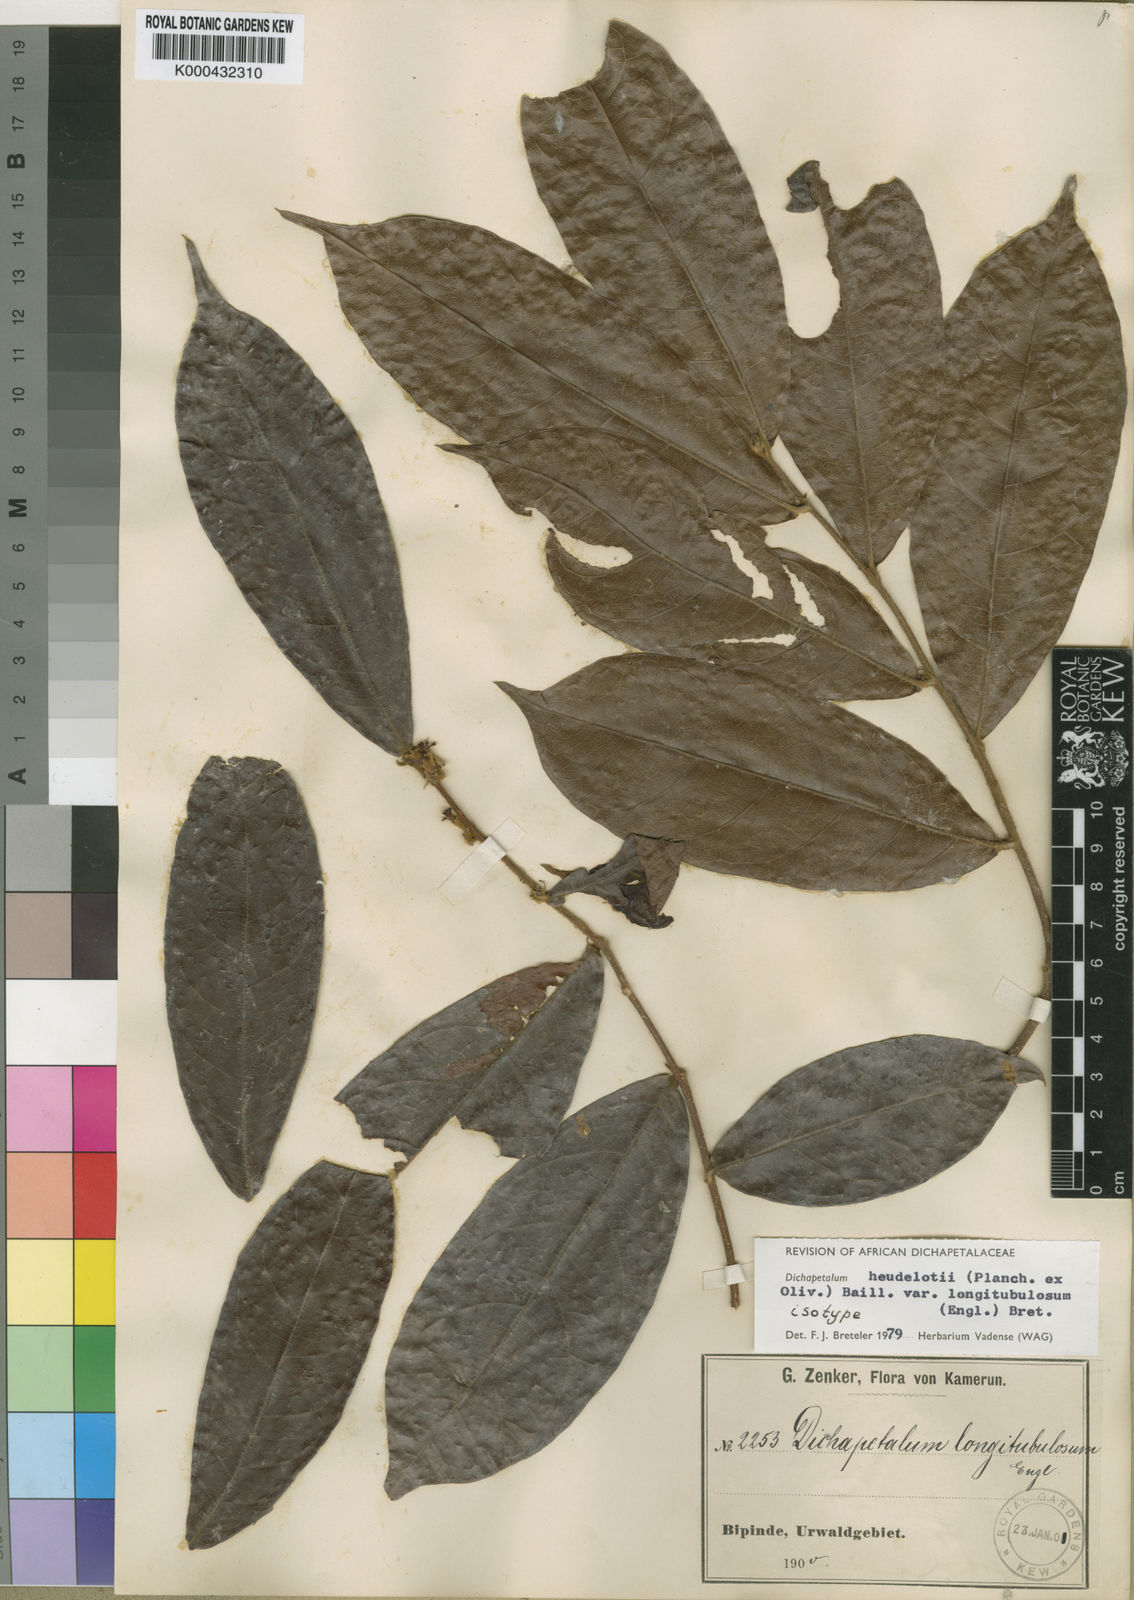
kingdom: Plantae
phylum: Tracheophyta
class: Magnoliopsida
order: Malpighiales
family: Dichapetalaceae
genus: Dichapetalum
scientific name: Dichapetalum heudelotii
